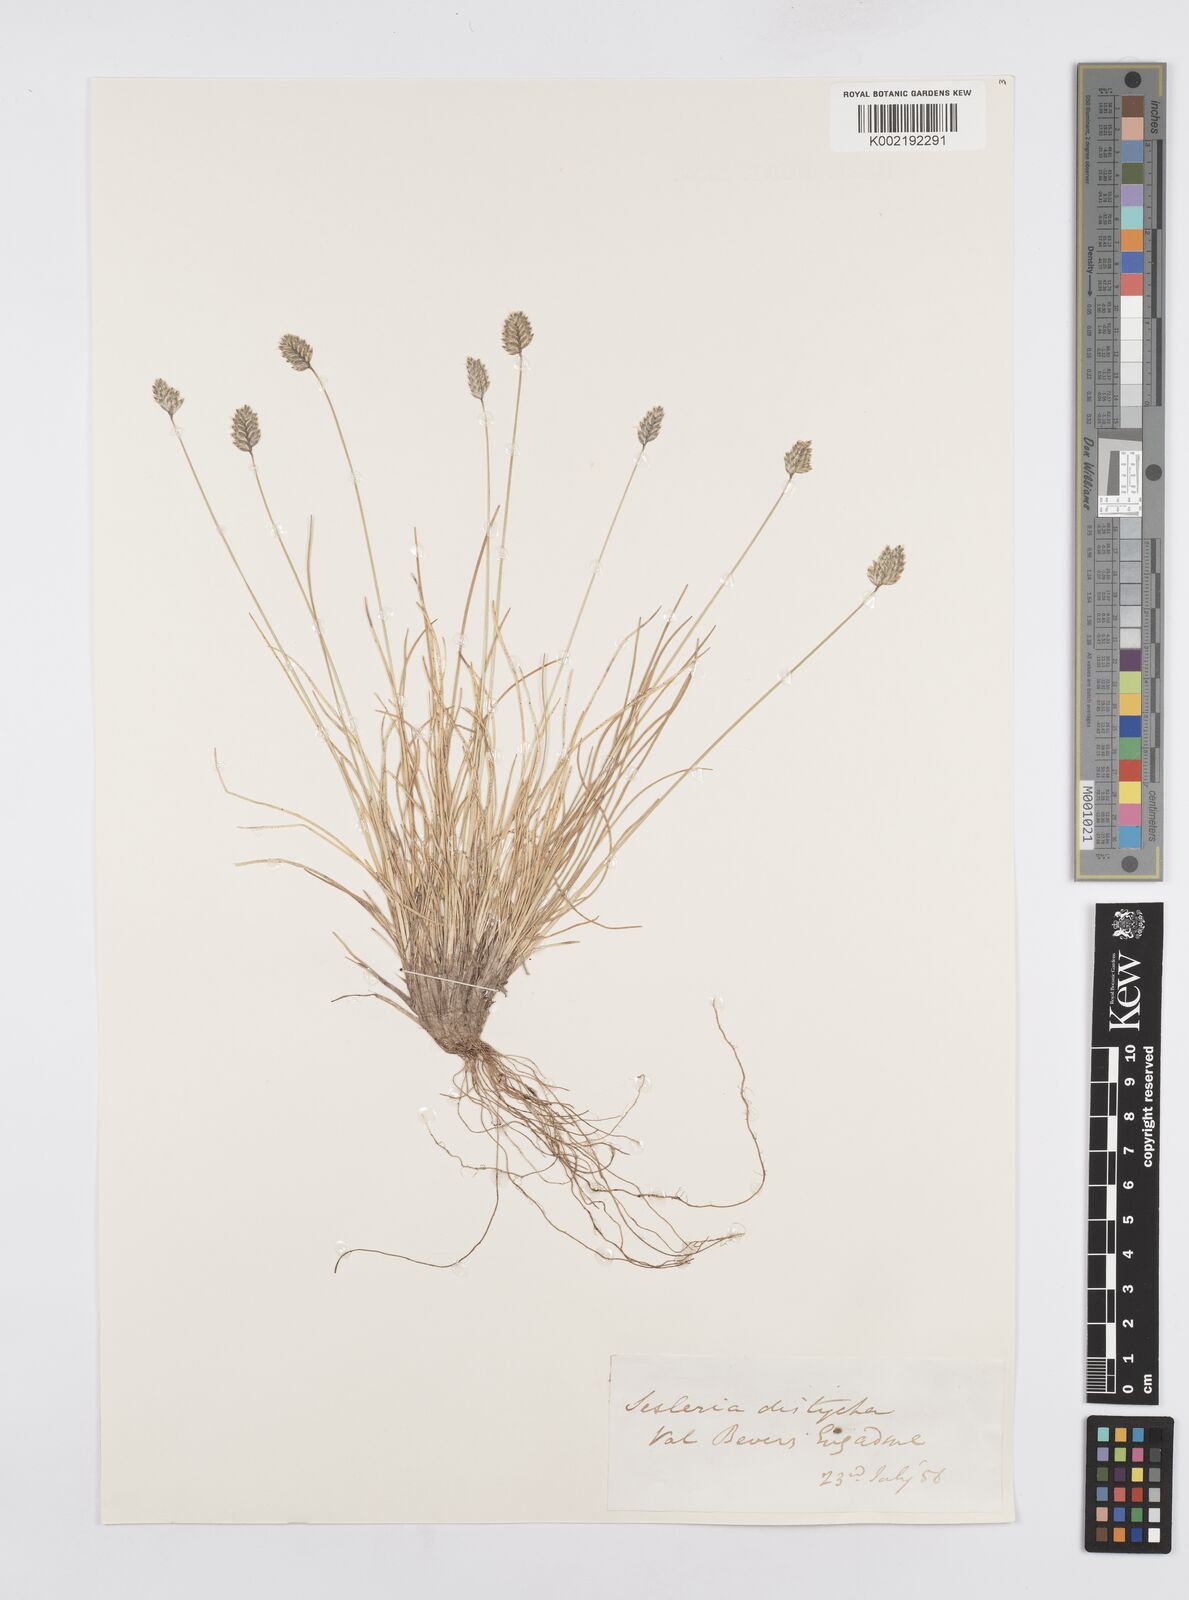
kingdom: Plantae
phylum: Tracheophyta
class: Liliopsida
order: Poales
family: Poaceae
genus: Oreochloa
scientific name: Oreochloa disticha
